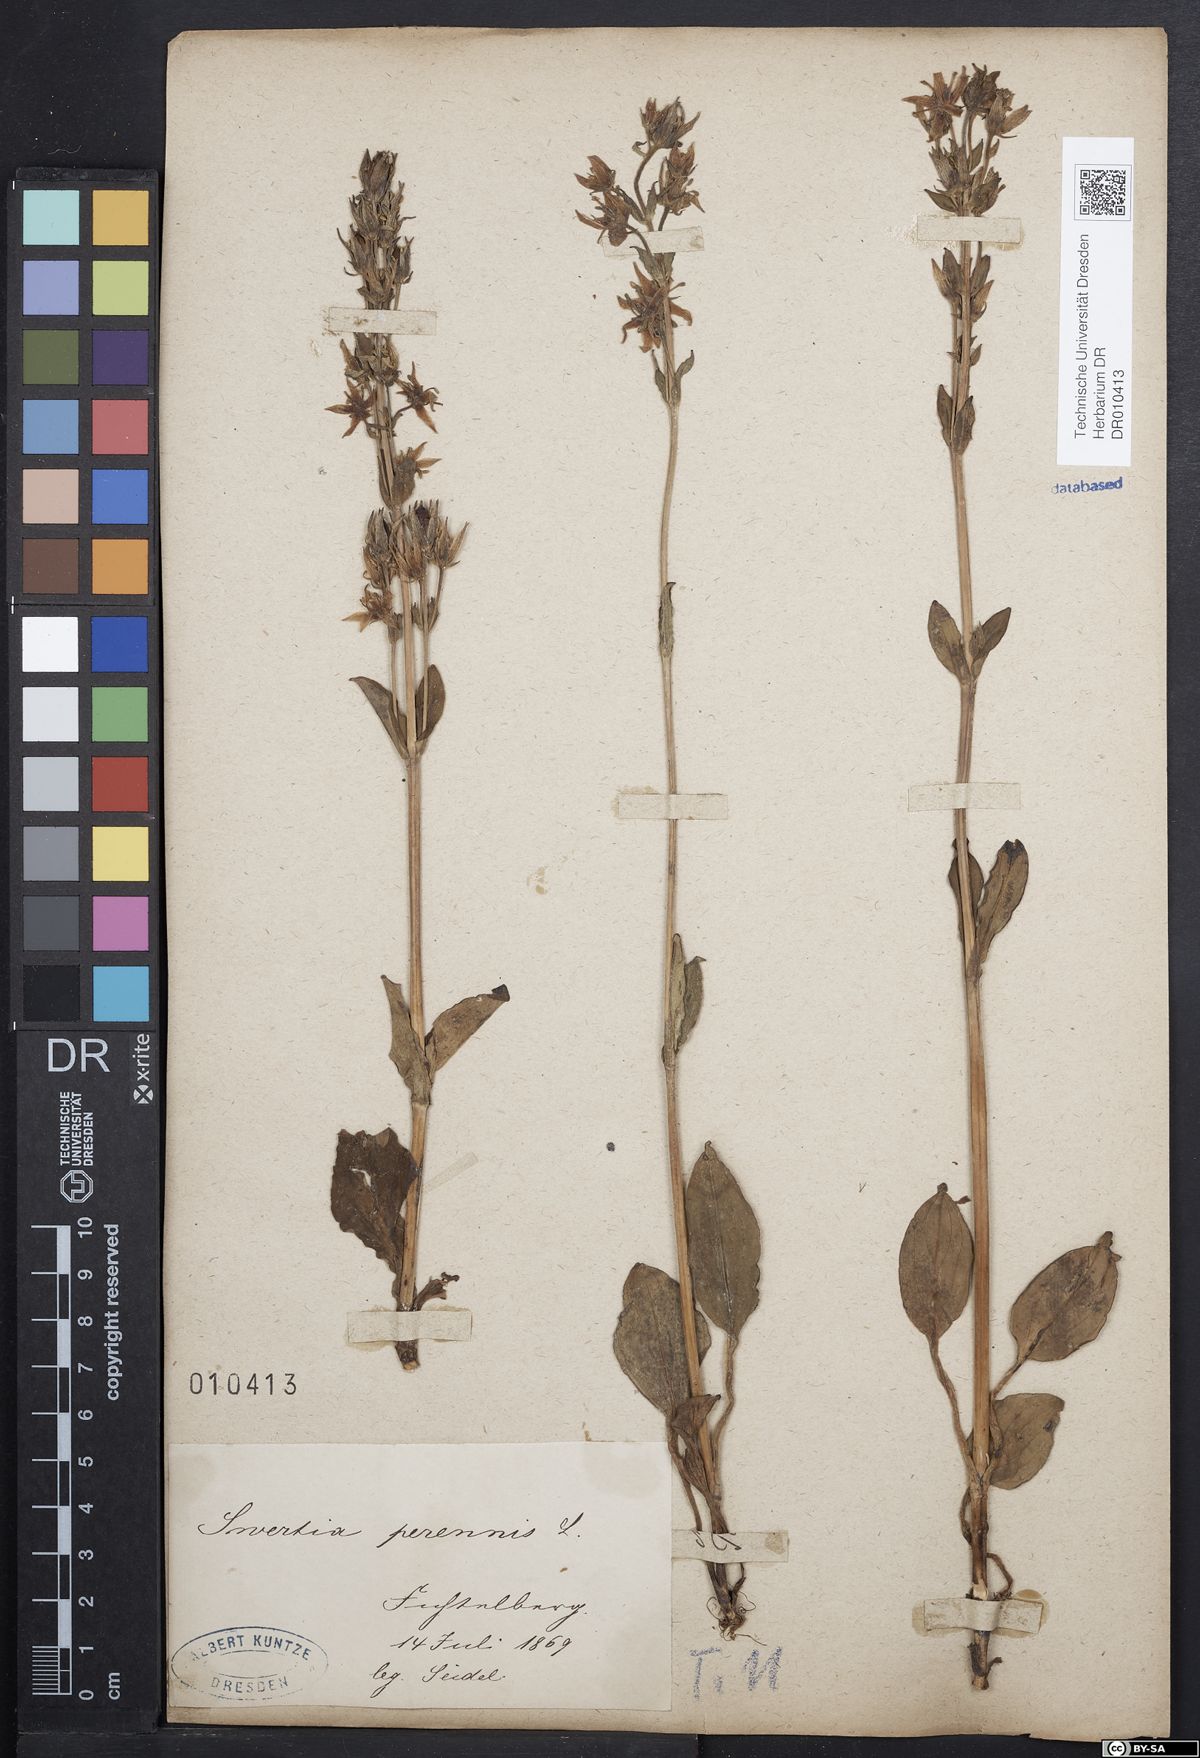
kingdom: Plantae
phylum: Tracheophyta
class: Magnoliopsida
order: Gentianales
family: Gentianaceae
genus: Swertia
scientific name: Swertia perennis
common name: Alpine bog swertia
